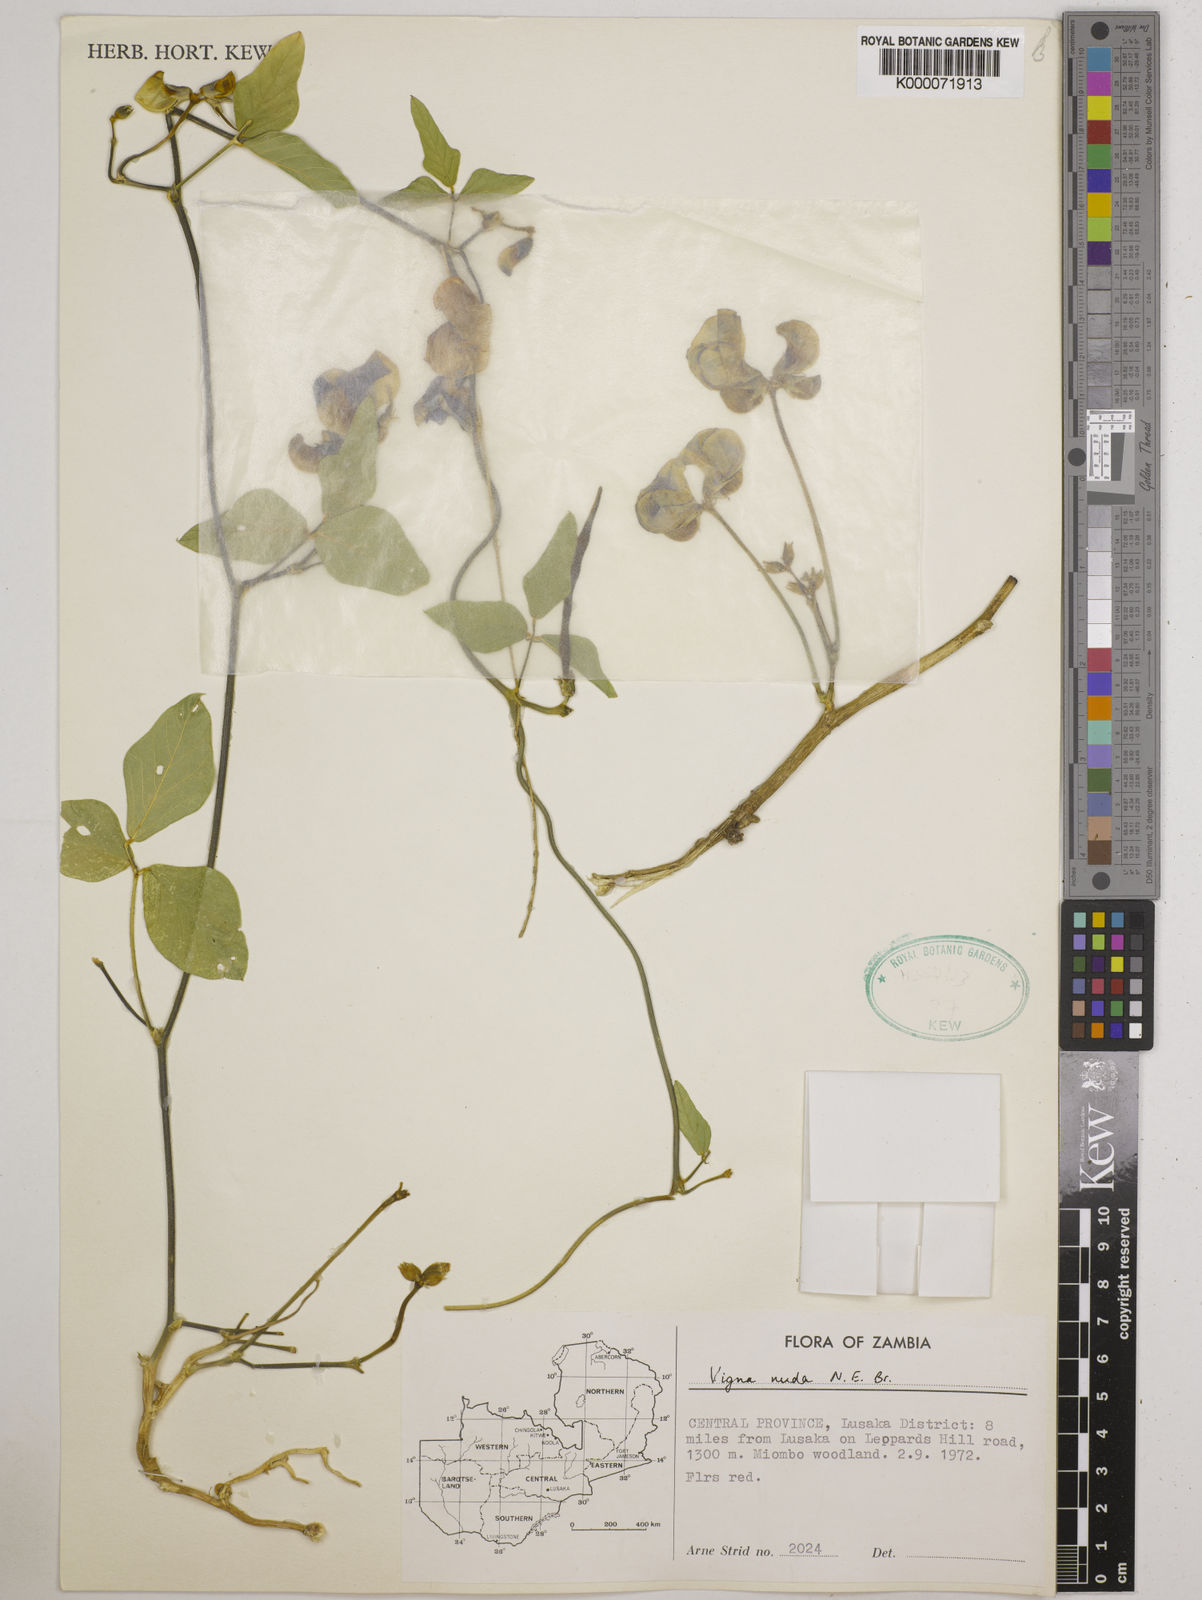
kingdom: Plantae
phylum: Tracheophyta
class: Magnoliopsida
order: Fabales
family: Fabaceae
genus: Vigna
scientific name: Vigna antunesii
